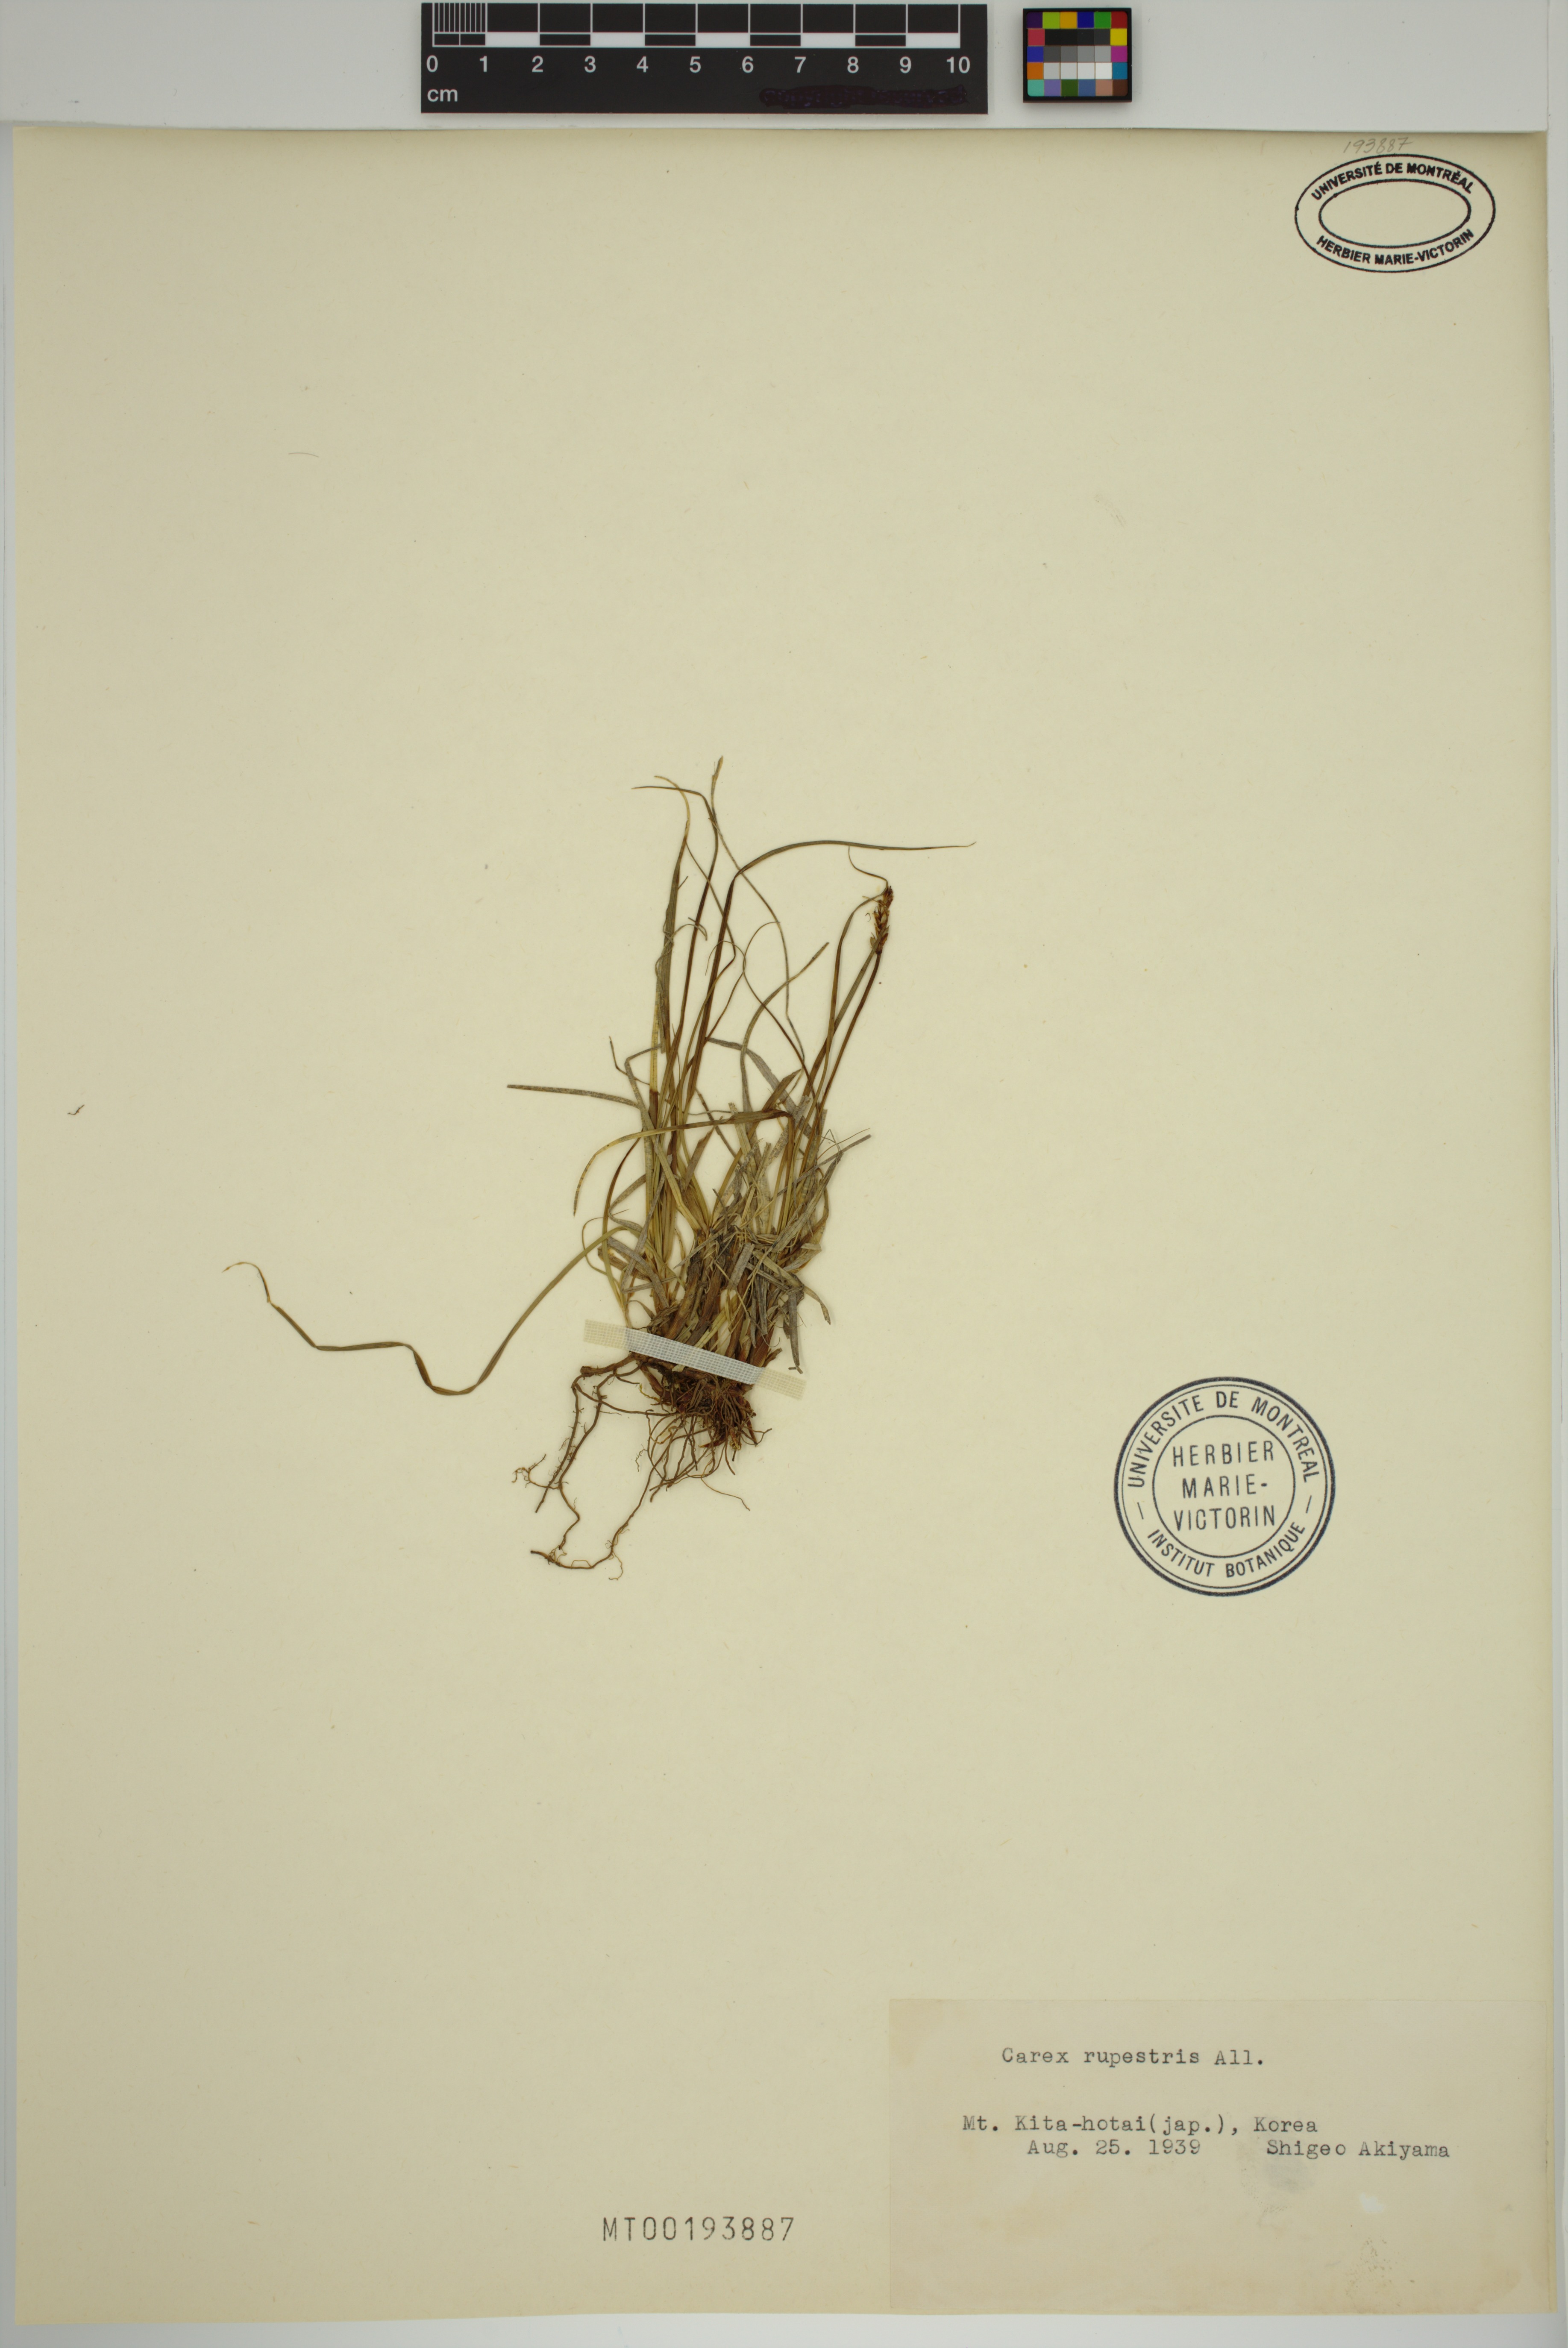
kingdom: Plantae
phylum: Tracheophyta
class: Liliopsida
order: Poales
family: Cyperaceae
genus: Carex
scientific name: Carex rupestris
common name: Rock sedge
